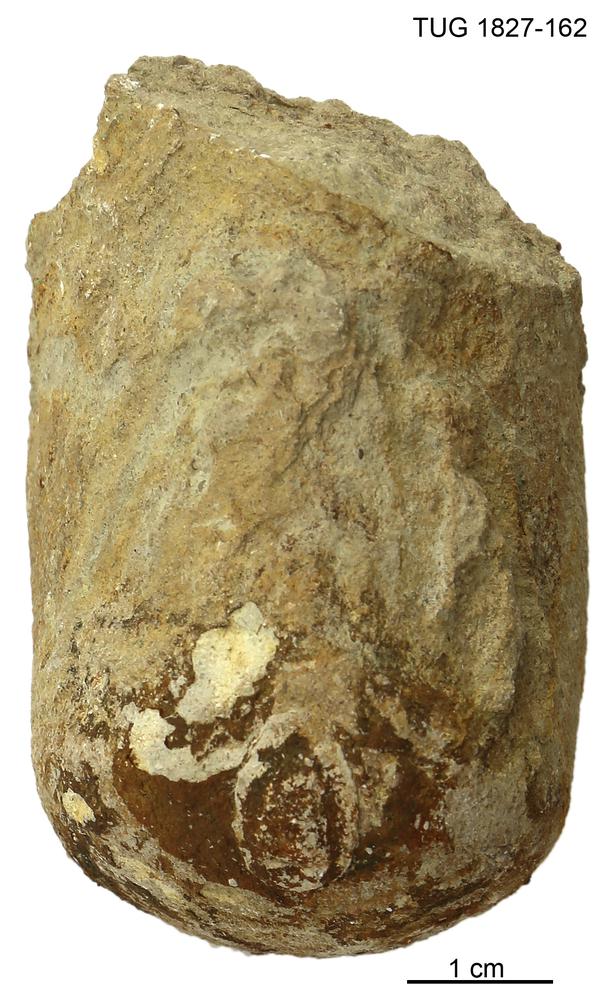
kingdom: Animalia
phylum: Mollusca
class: Cephalopoda
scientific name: Cephalopoda
